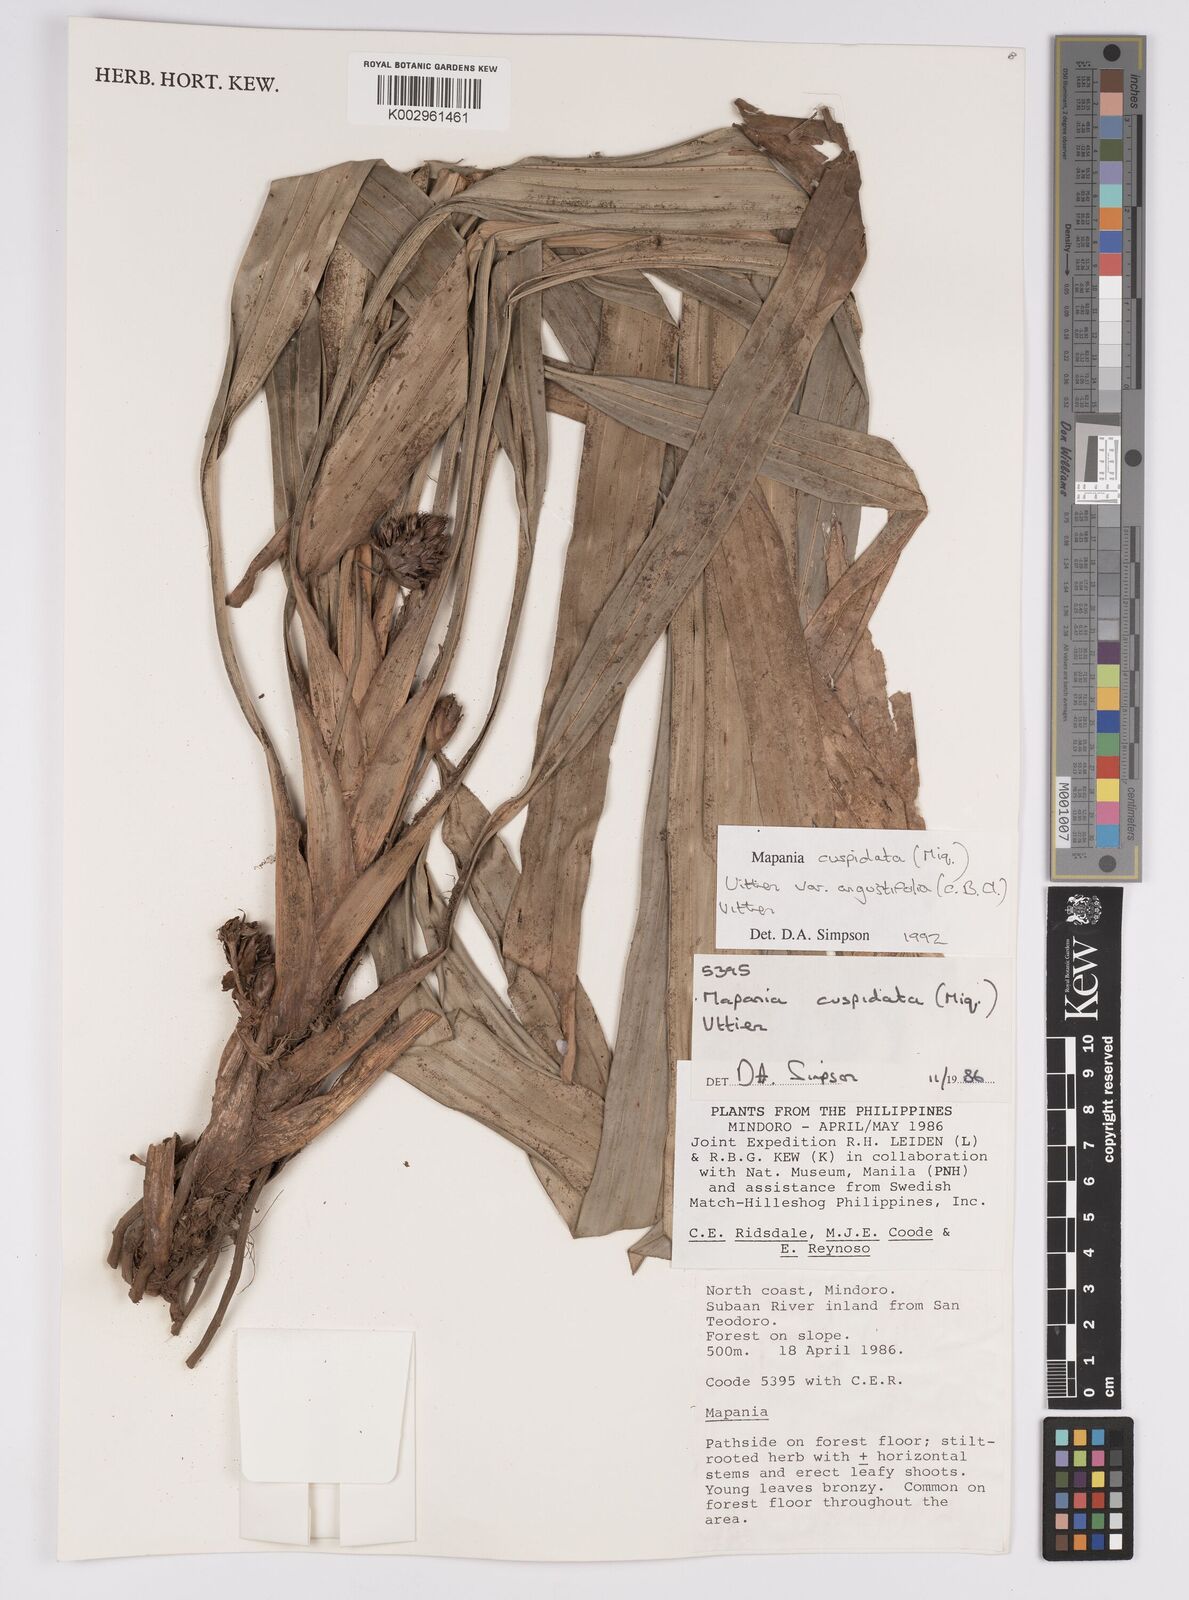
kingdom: Plantae
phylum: Tracheophyta
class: Liliopsida
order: Poales
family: Cyperaceae
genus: Mapania
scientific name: Mapania cuspidata
